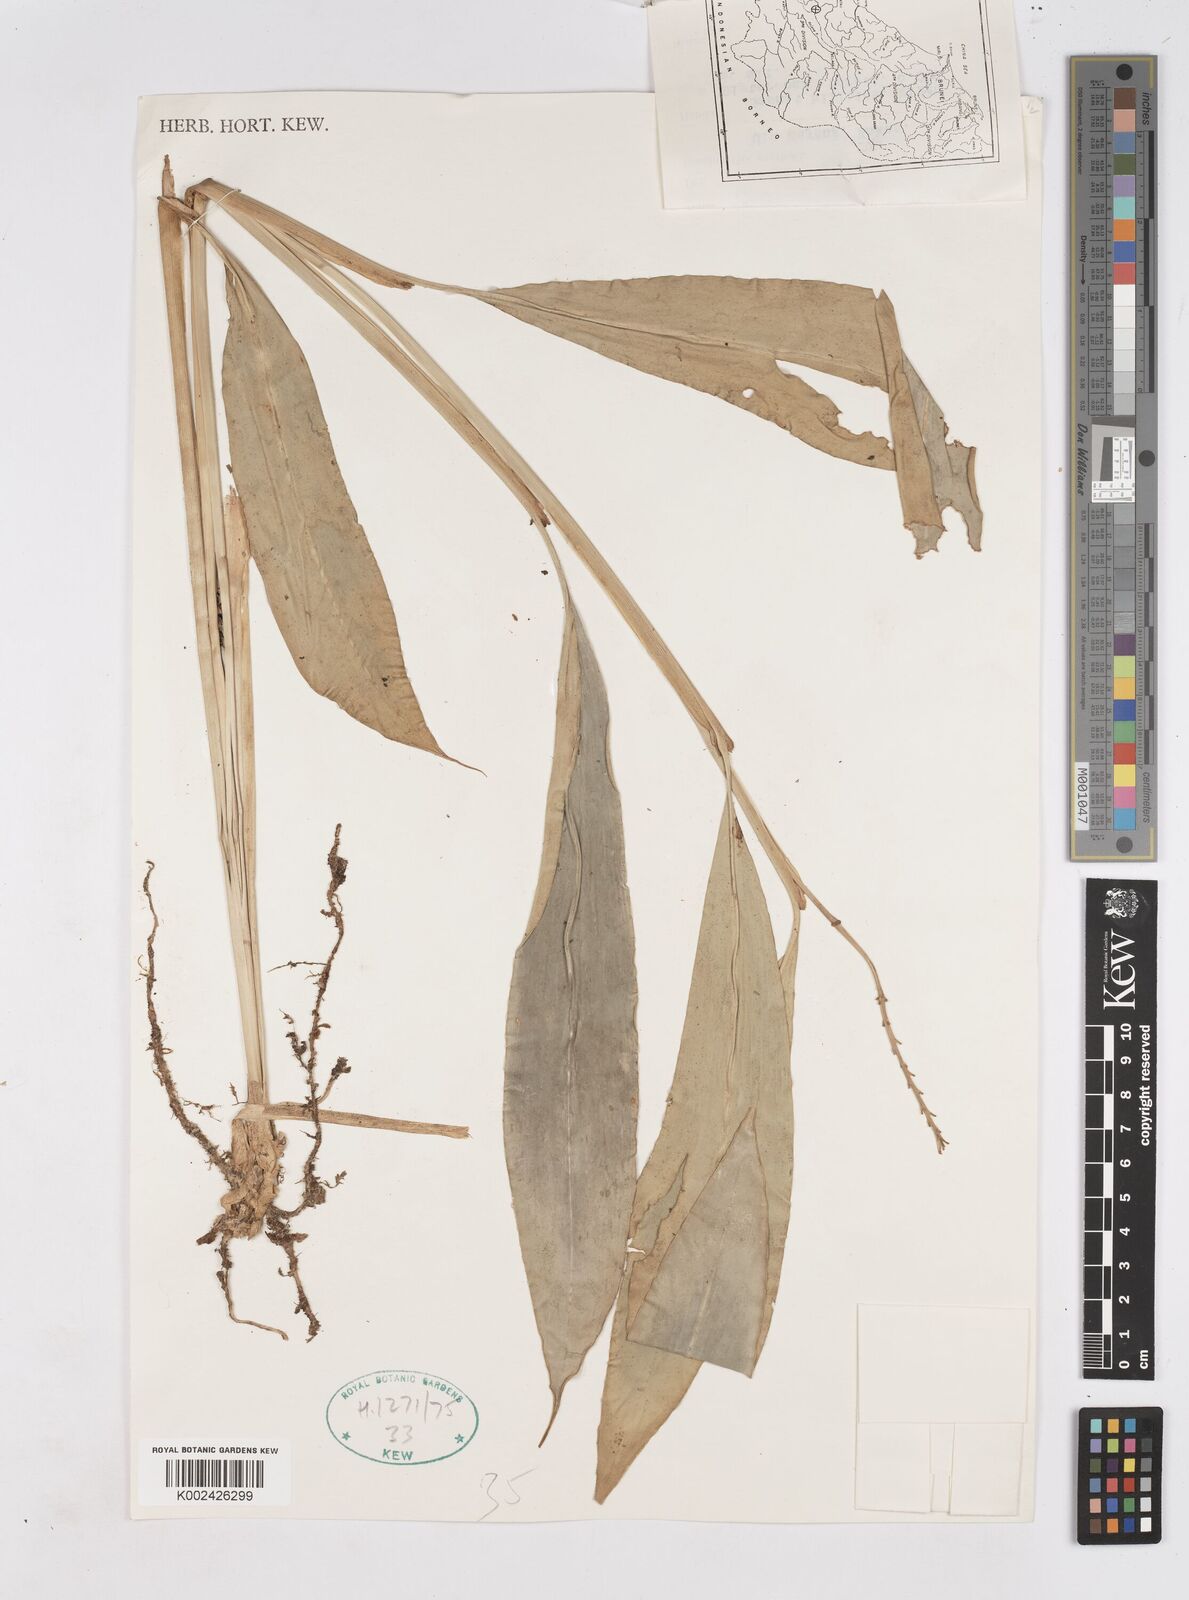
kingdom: Plantae
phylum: Tracheophyta
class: Liliopsida
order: Zingiberales
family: Zingiberaceae
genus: Burbidgea
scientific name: Burbidgea schizocheila
